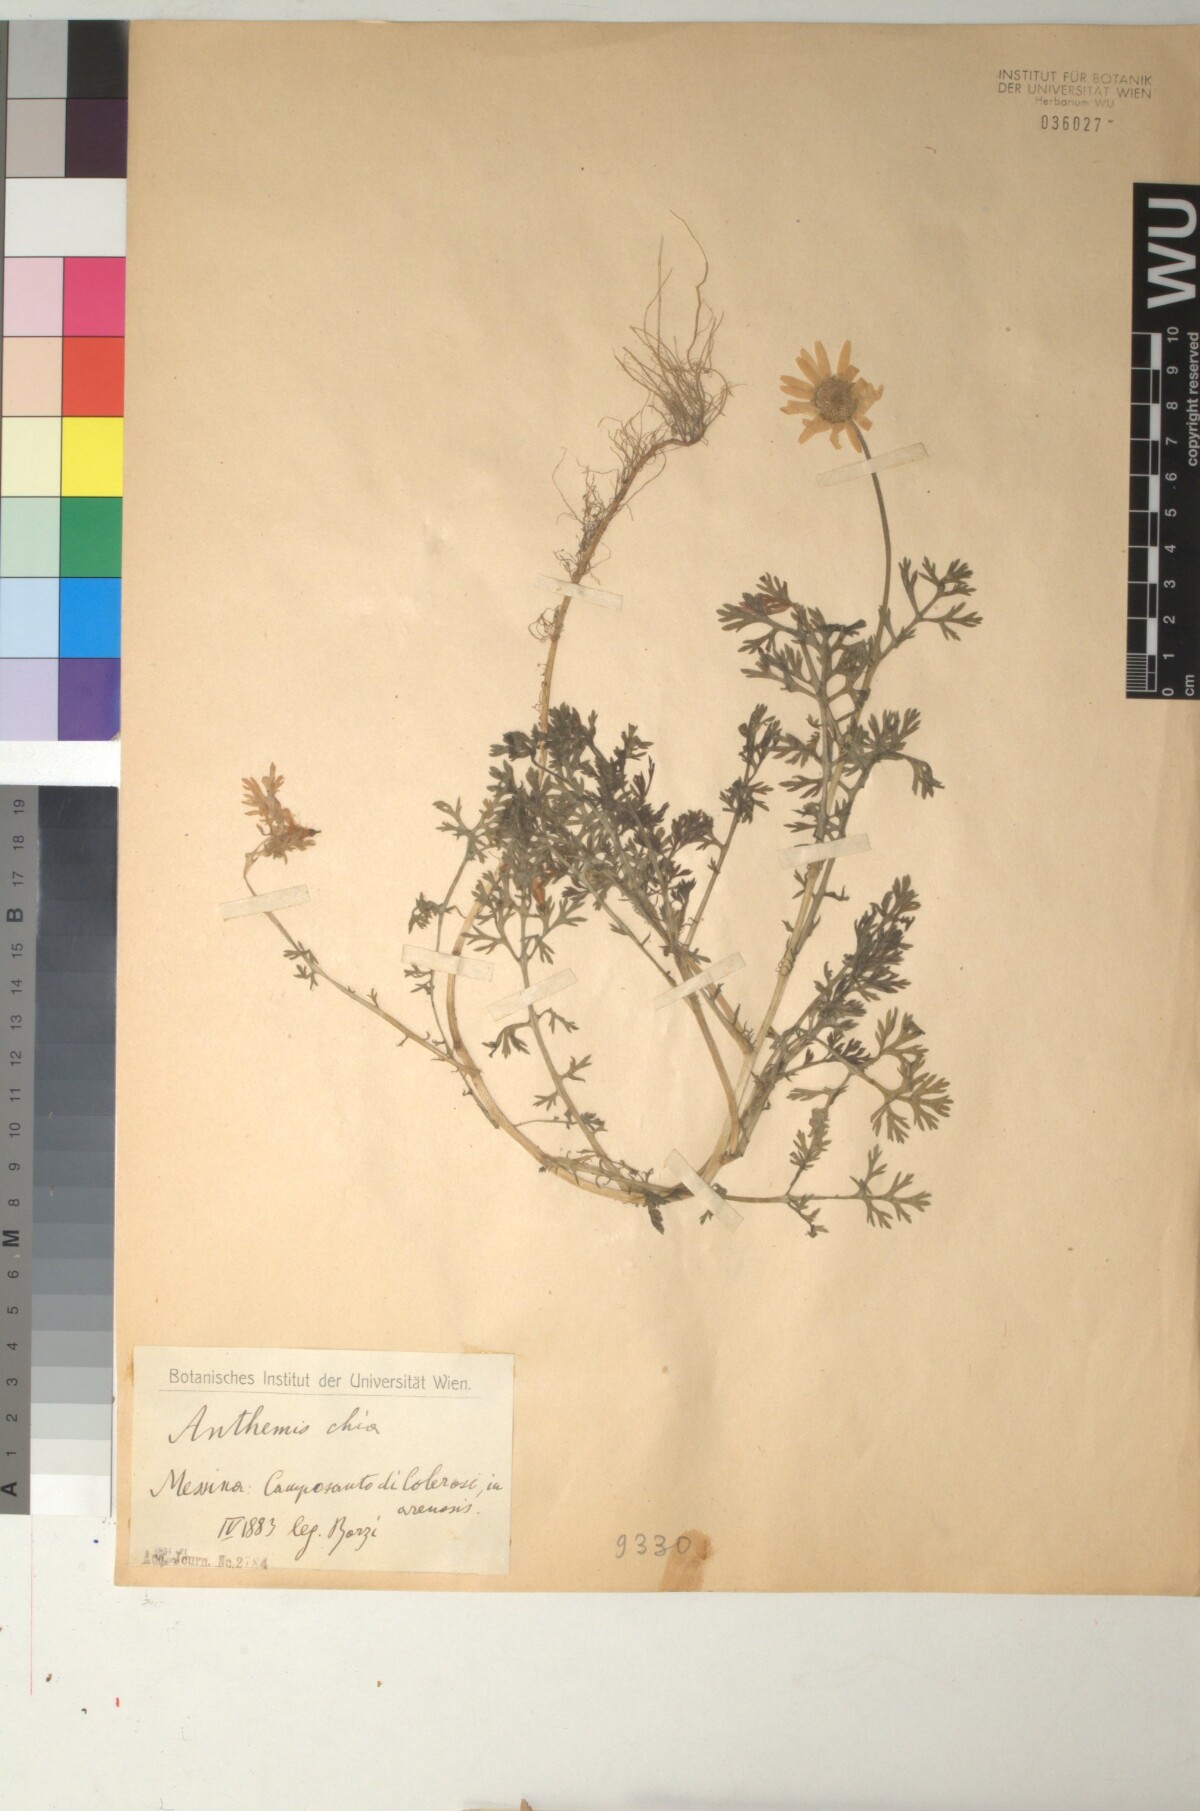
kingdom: Plantae
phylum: Tracheophyta
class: Magnoliopsida
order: Asterales
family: Asteraceae
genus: Anthemis
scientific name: Anthemis chia
